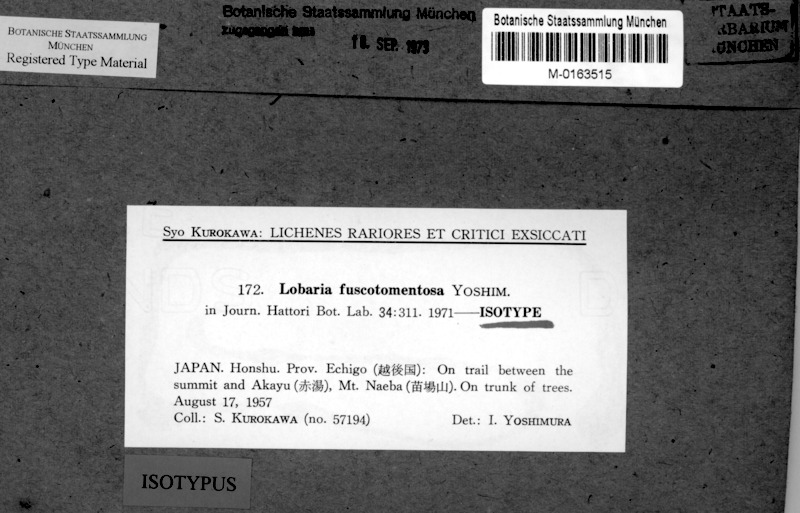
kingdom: Fungi
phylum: Ascomycota
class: Lecanoromycetes
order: Peltigerales
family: Lobariaceae
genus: Lobaria
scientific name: Lobaria fuscotomentosa
